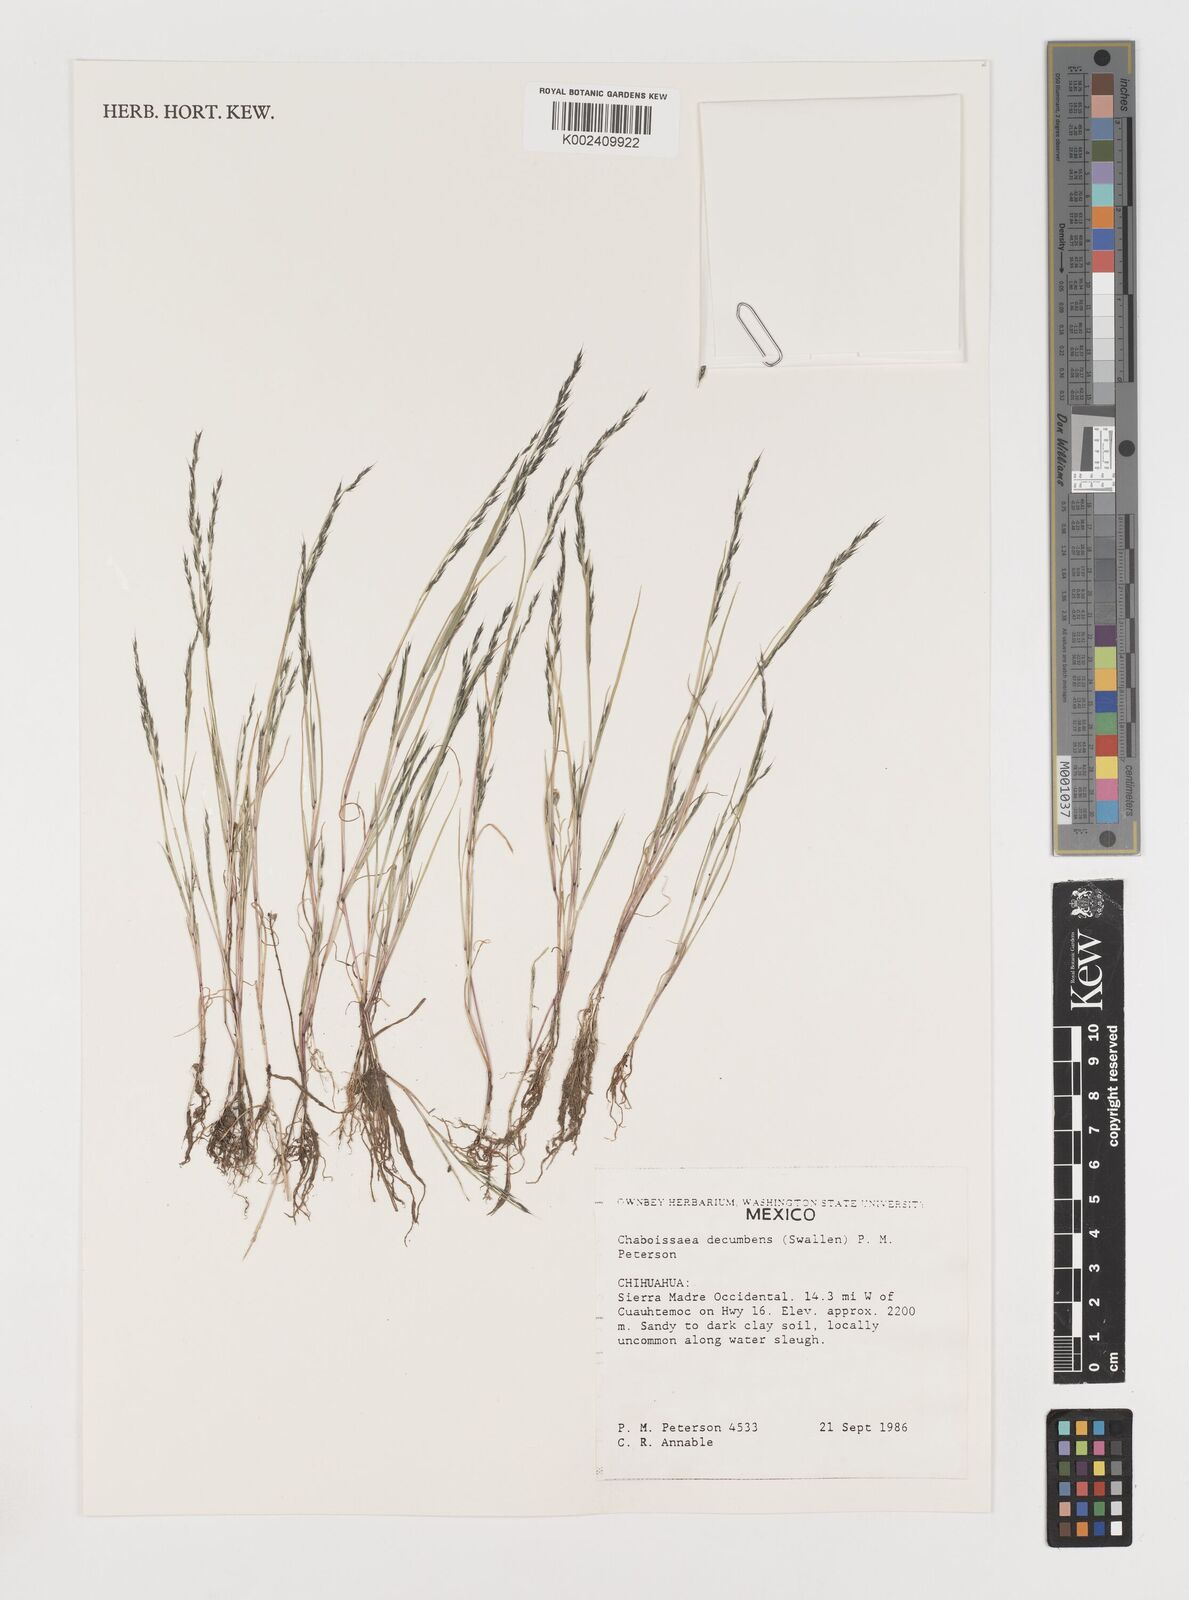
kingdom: Plantae
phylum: Tracheophyta
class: Liliopsida
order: Poales
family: Poaceae
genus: Muhlenbergia
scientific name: Muhlenbergia decumbens
